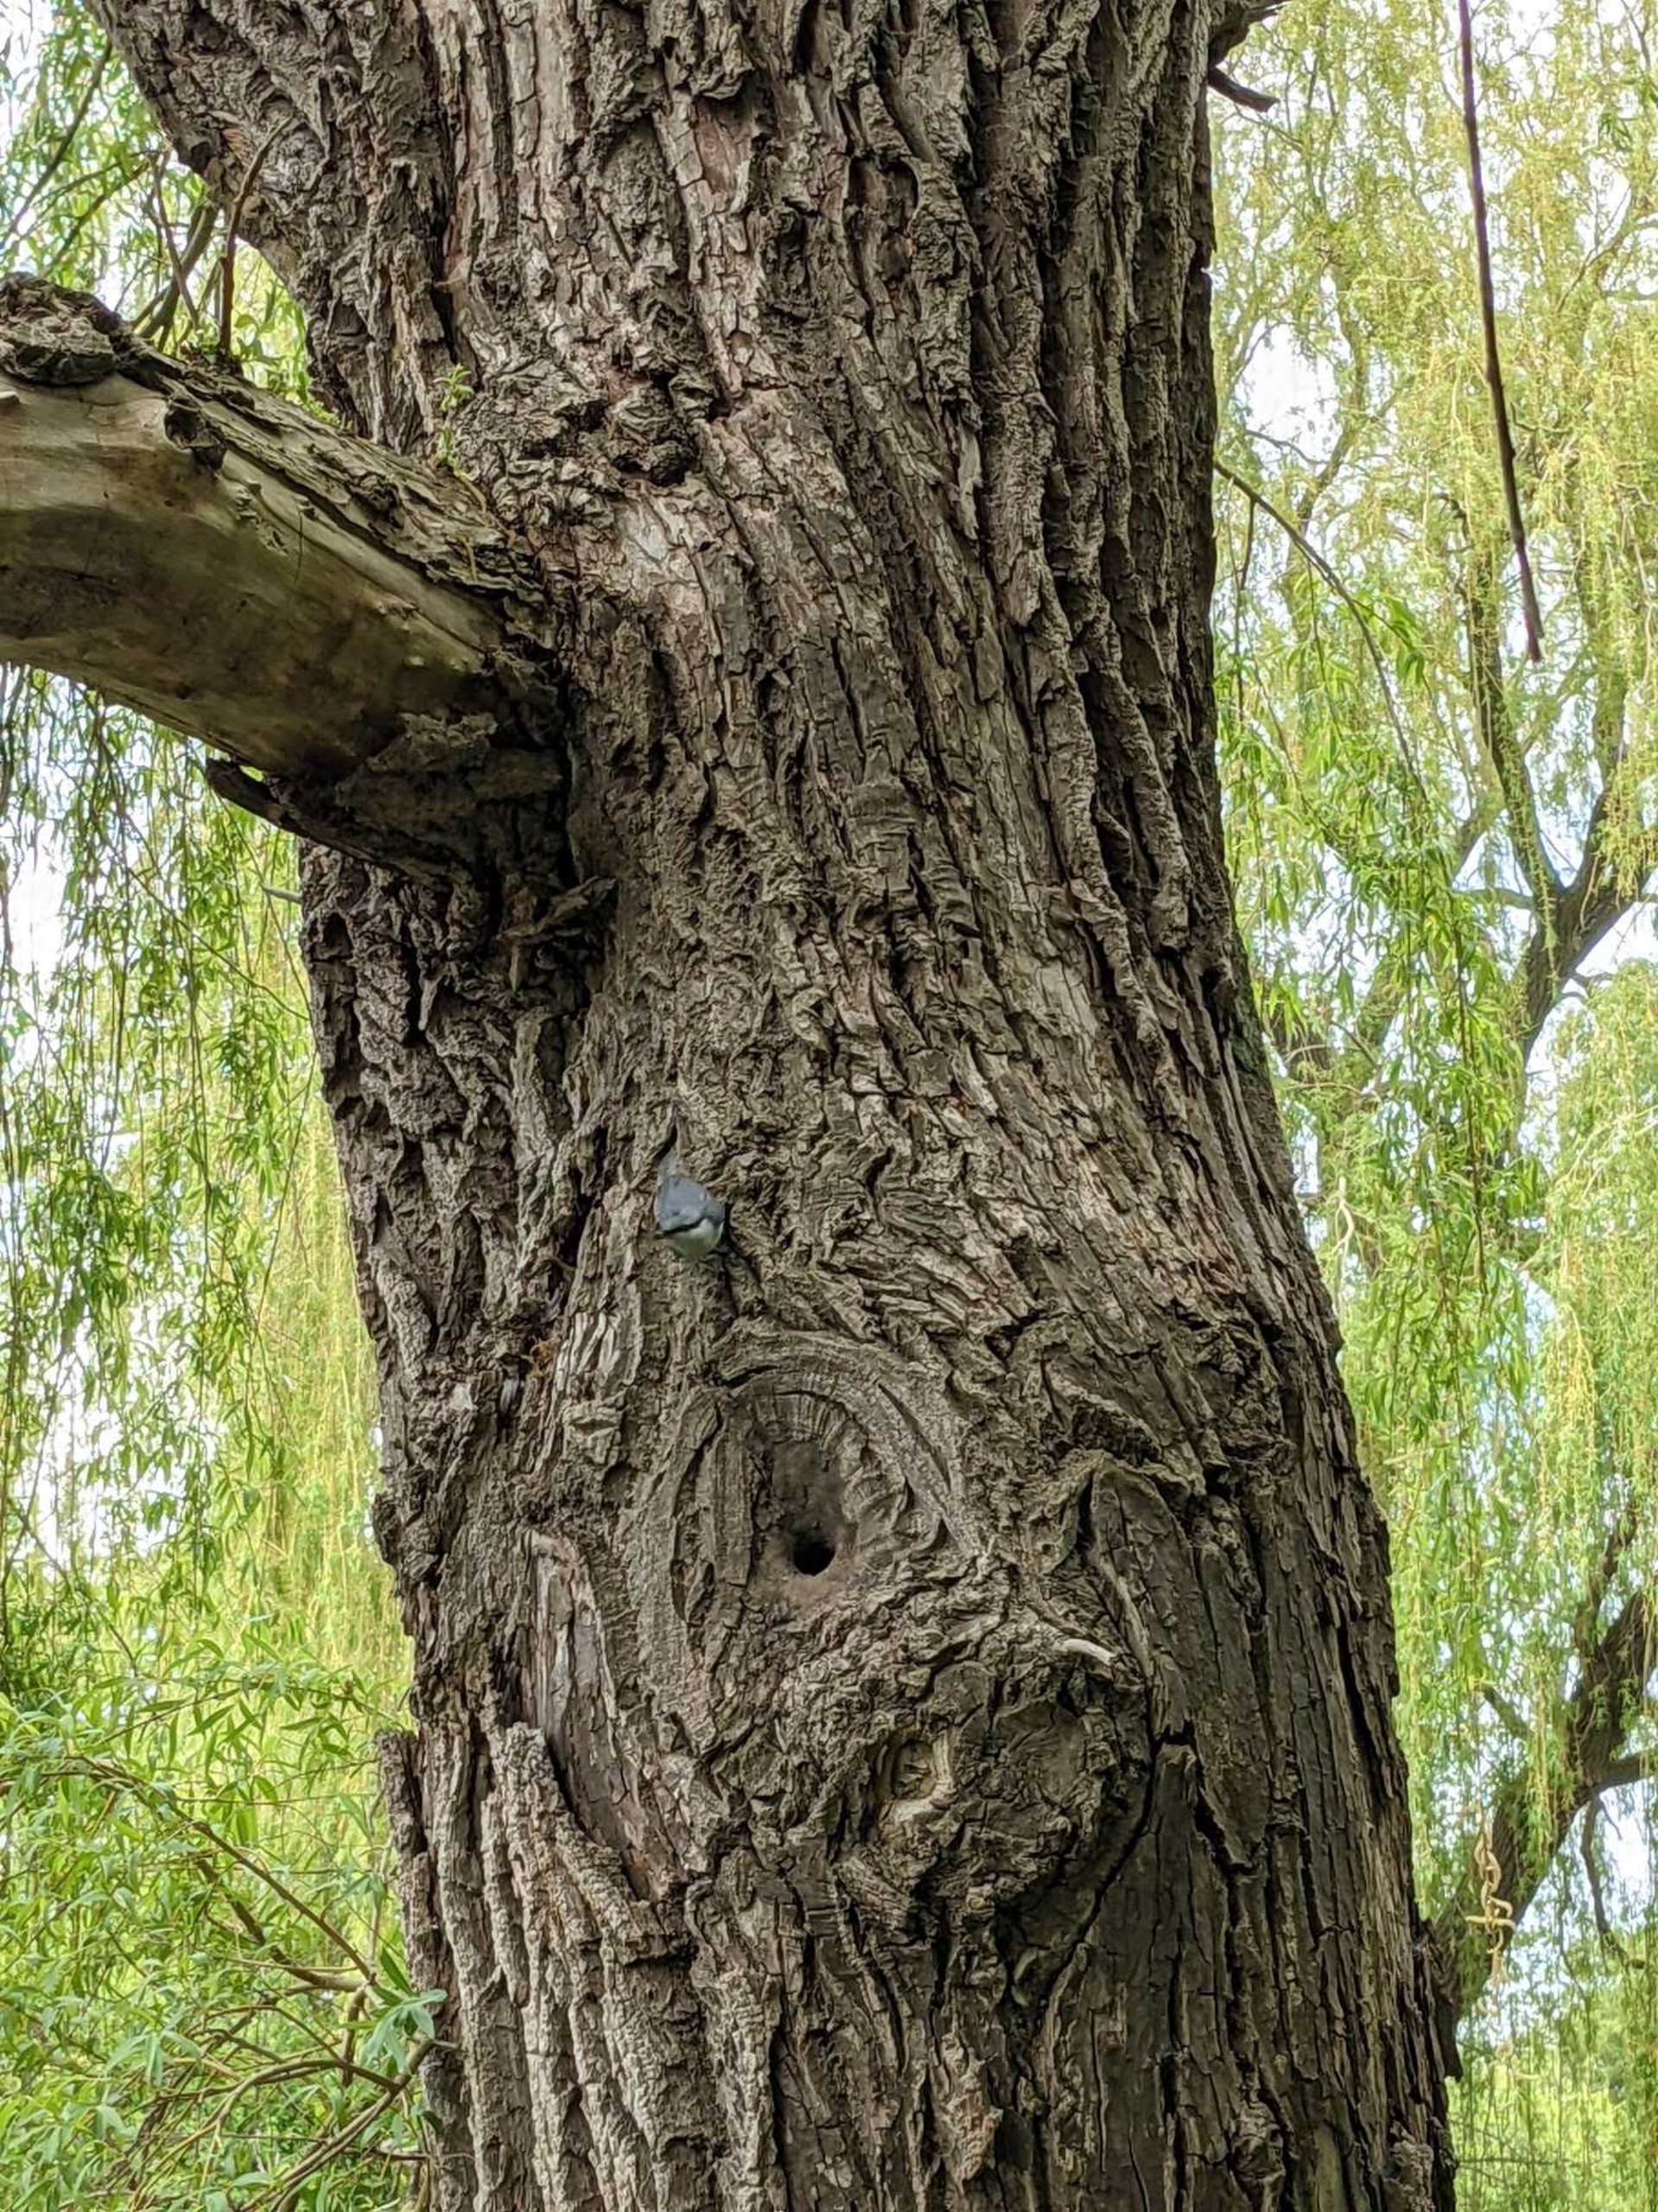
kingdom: Animalia
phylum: Chordata
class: Aves
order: Passeriformes
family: Sittidae
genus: Sitta
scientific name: Sitta europaea
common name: Spætmejse
